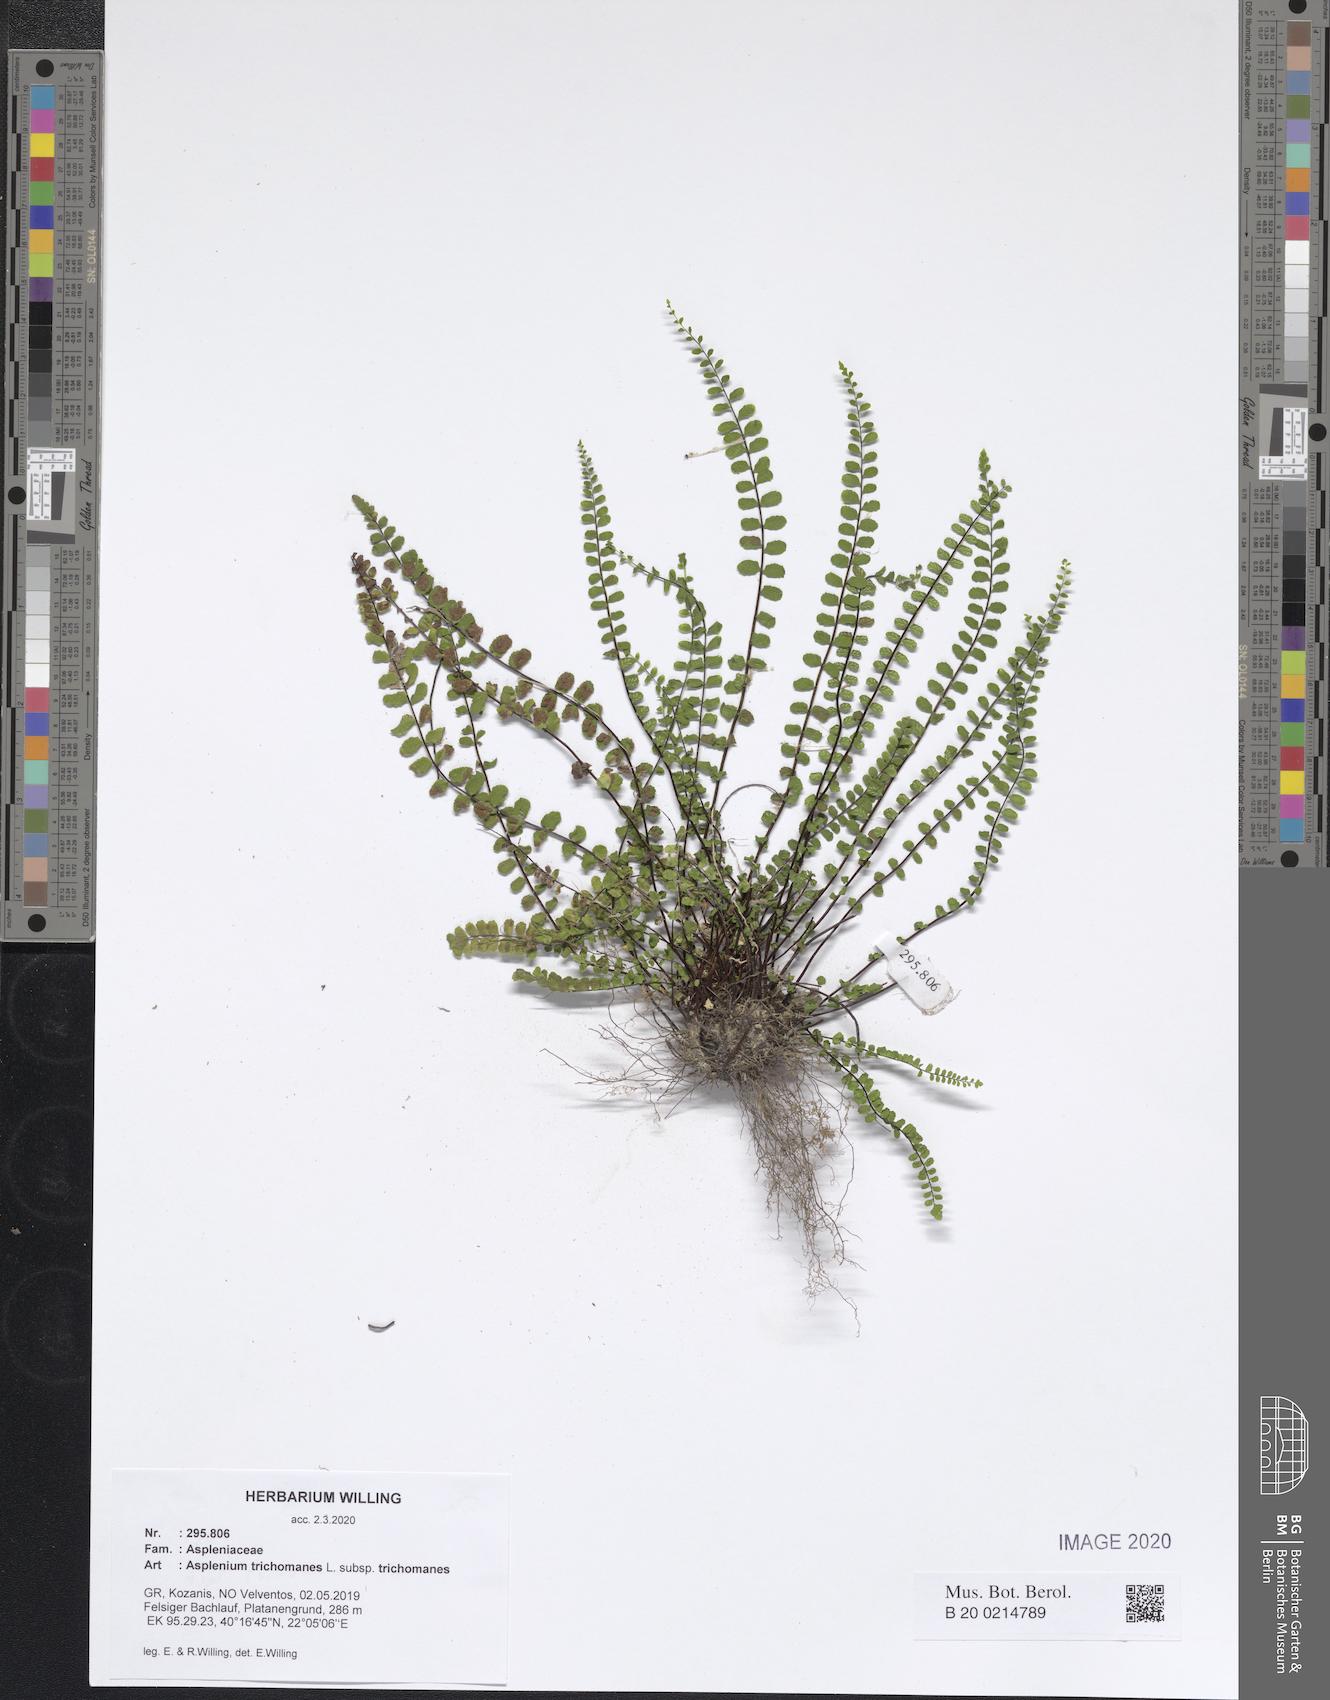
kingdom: Plantae
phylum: Tracheophyta
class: Polypodiopsida
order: Polypodiales
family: Aspleniaceae
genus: Asplenium
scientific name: Asplenium trichomanes
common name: Maidenhair spleenwort
